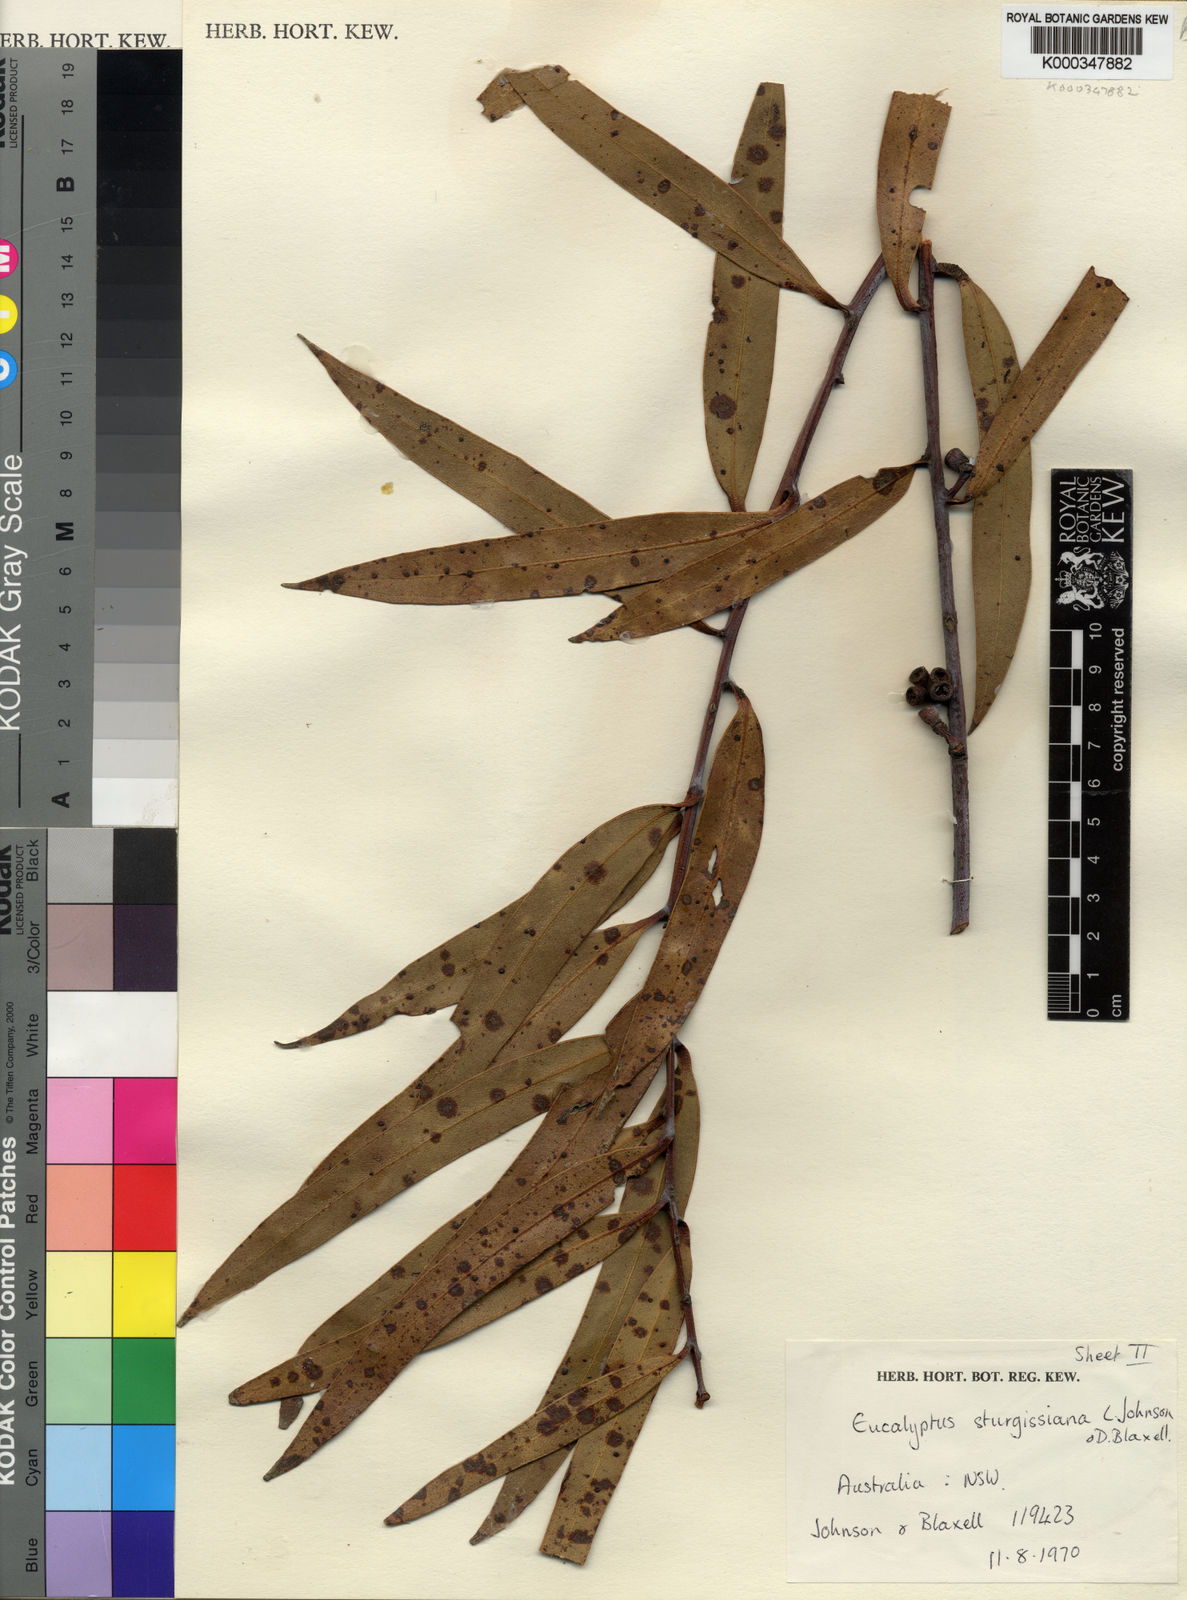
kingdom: Plantae
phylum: Tracheophyta
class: Magnoliopsida
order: Myrtales
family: Myrtaceae
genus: Eucalyptus
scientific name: Eucalyptus sturgissiana
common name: Ettrema mallee
